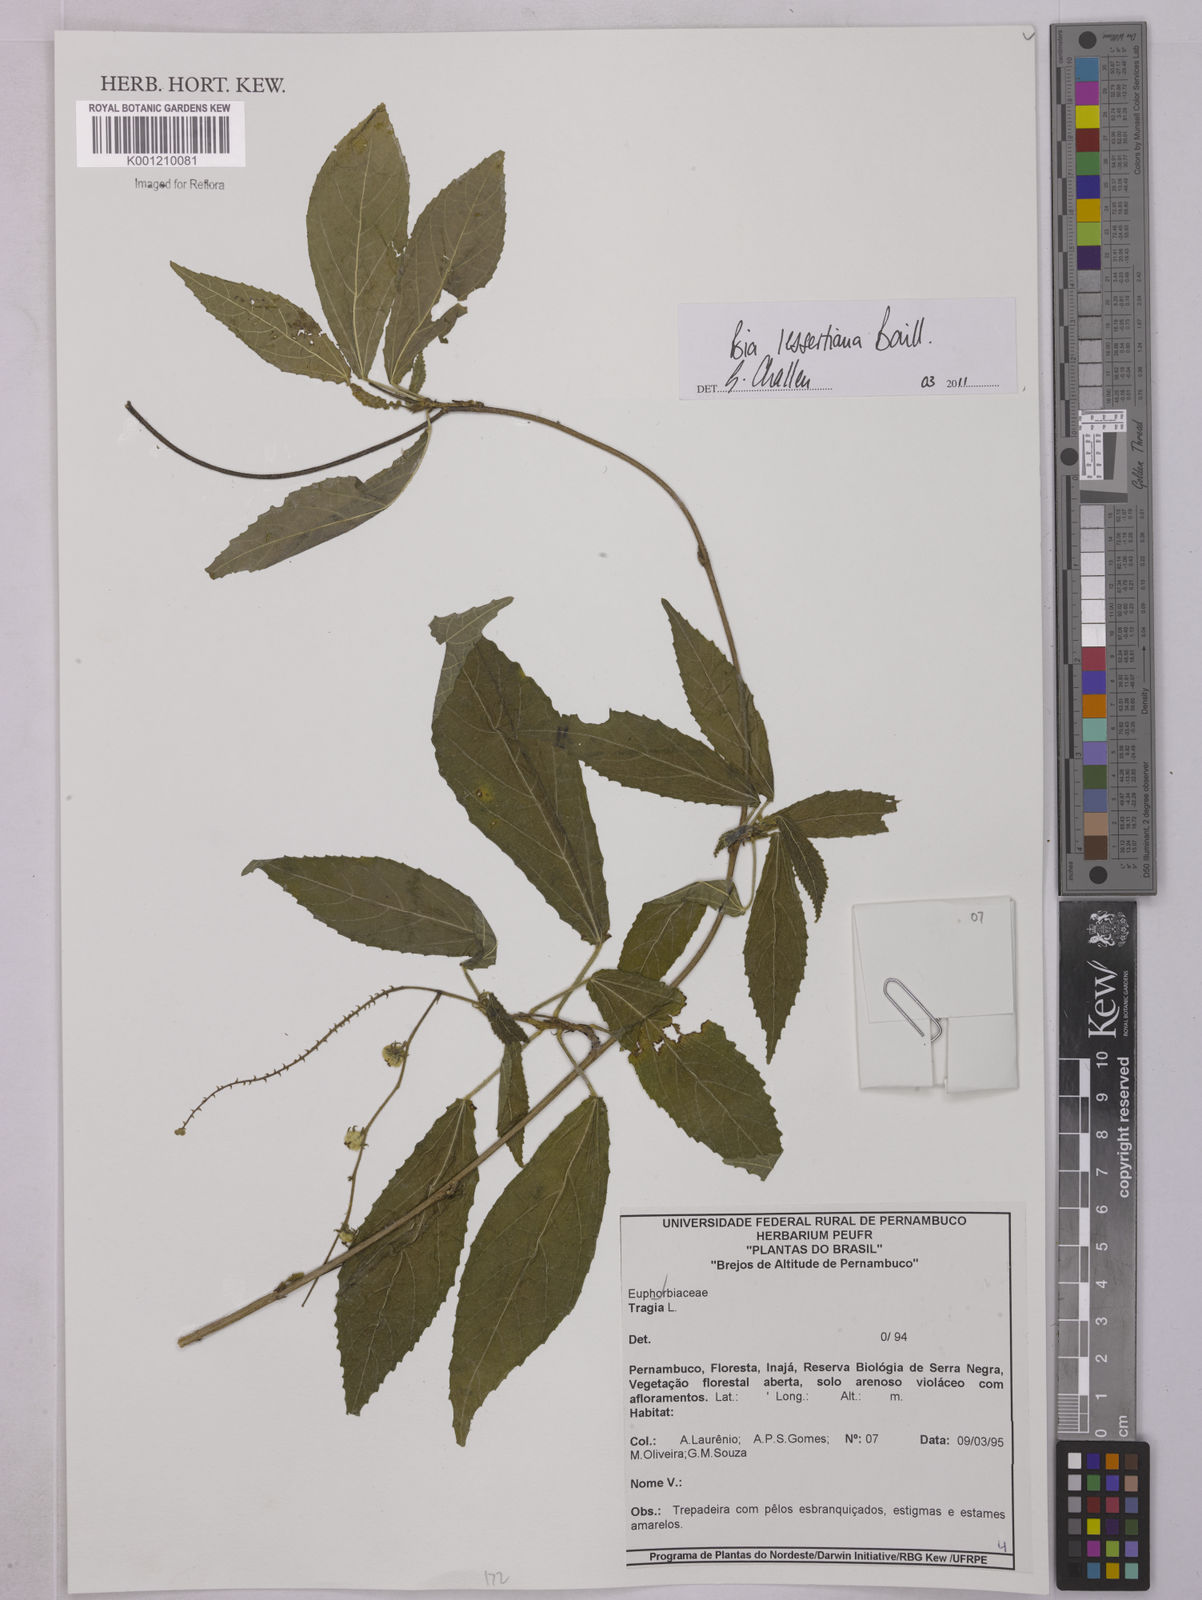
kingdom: Plantae
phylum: Tracheophyta
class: Magnoliopsida
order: Malpighiales
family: Euphorbiaceae
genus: Bia
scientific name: Bia lessertiana
